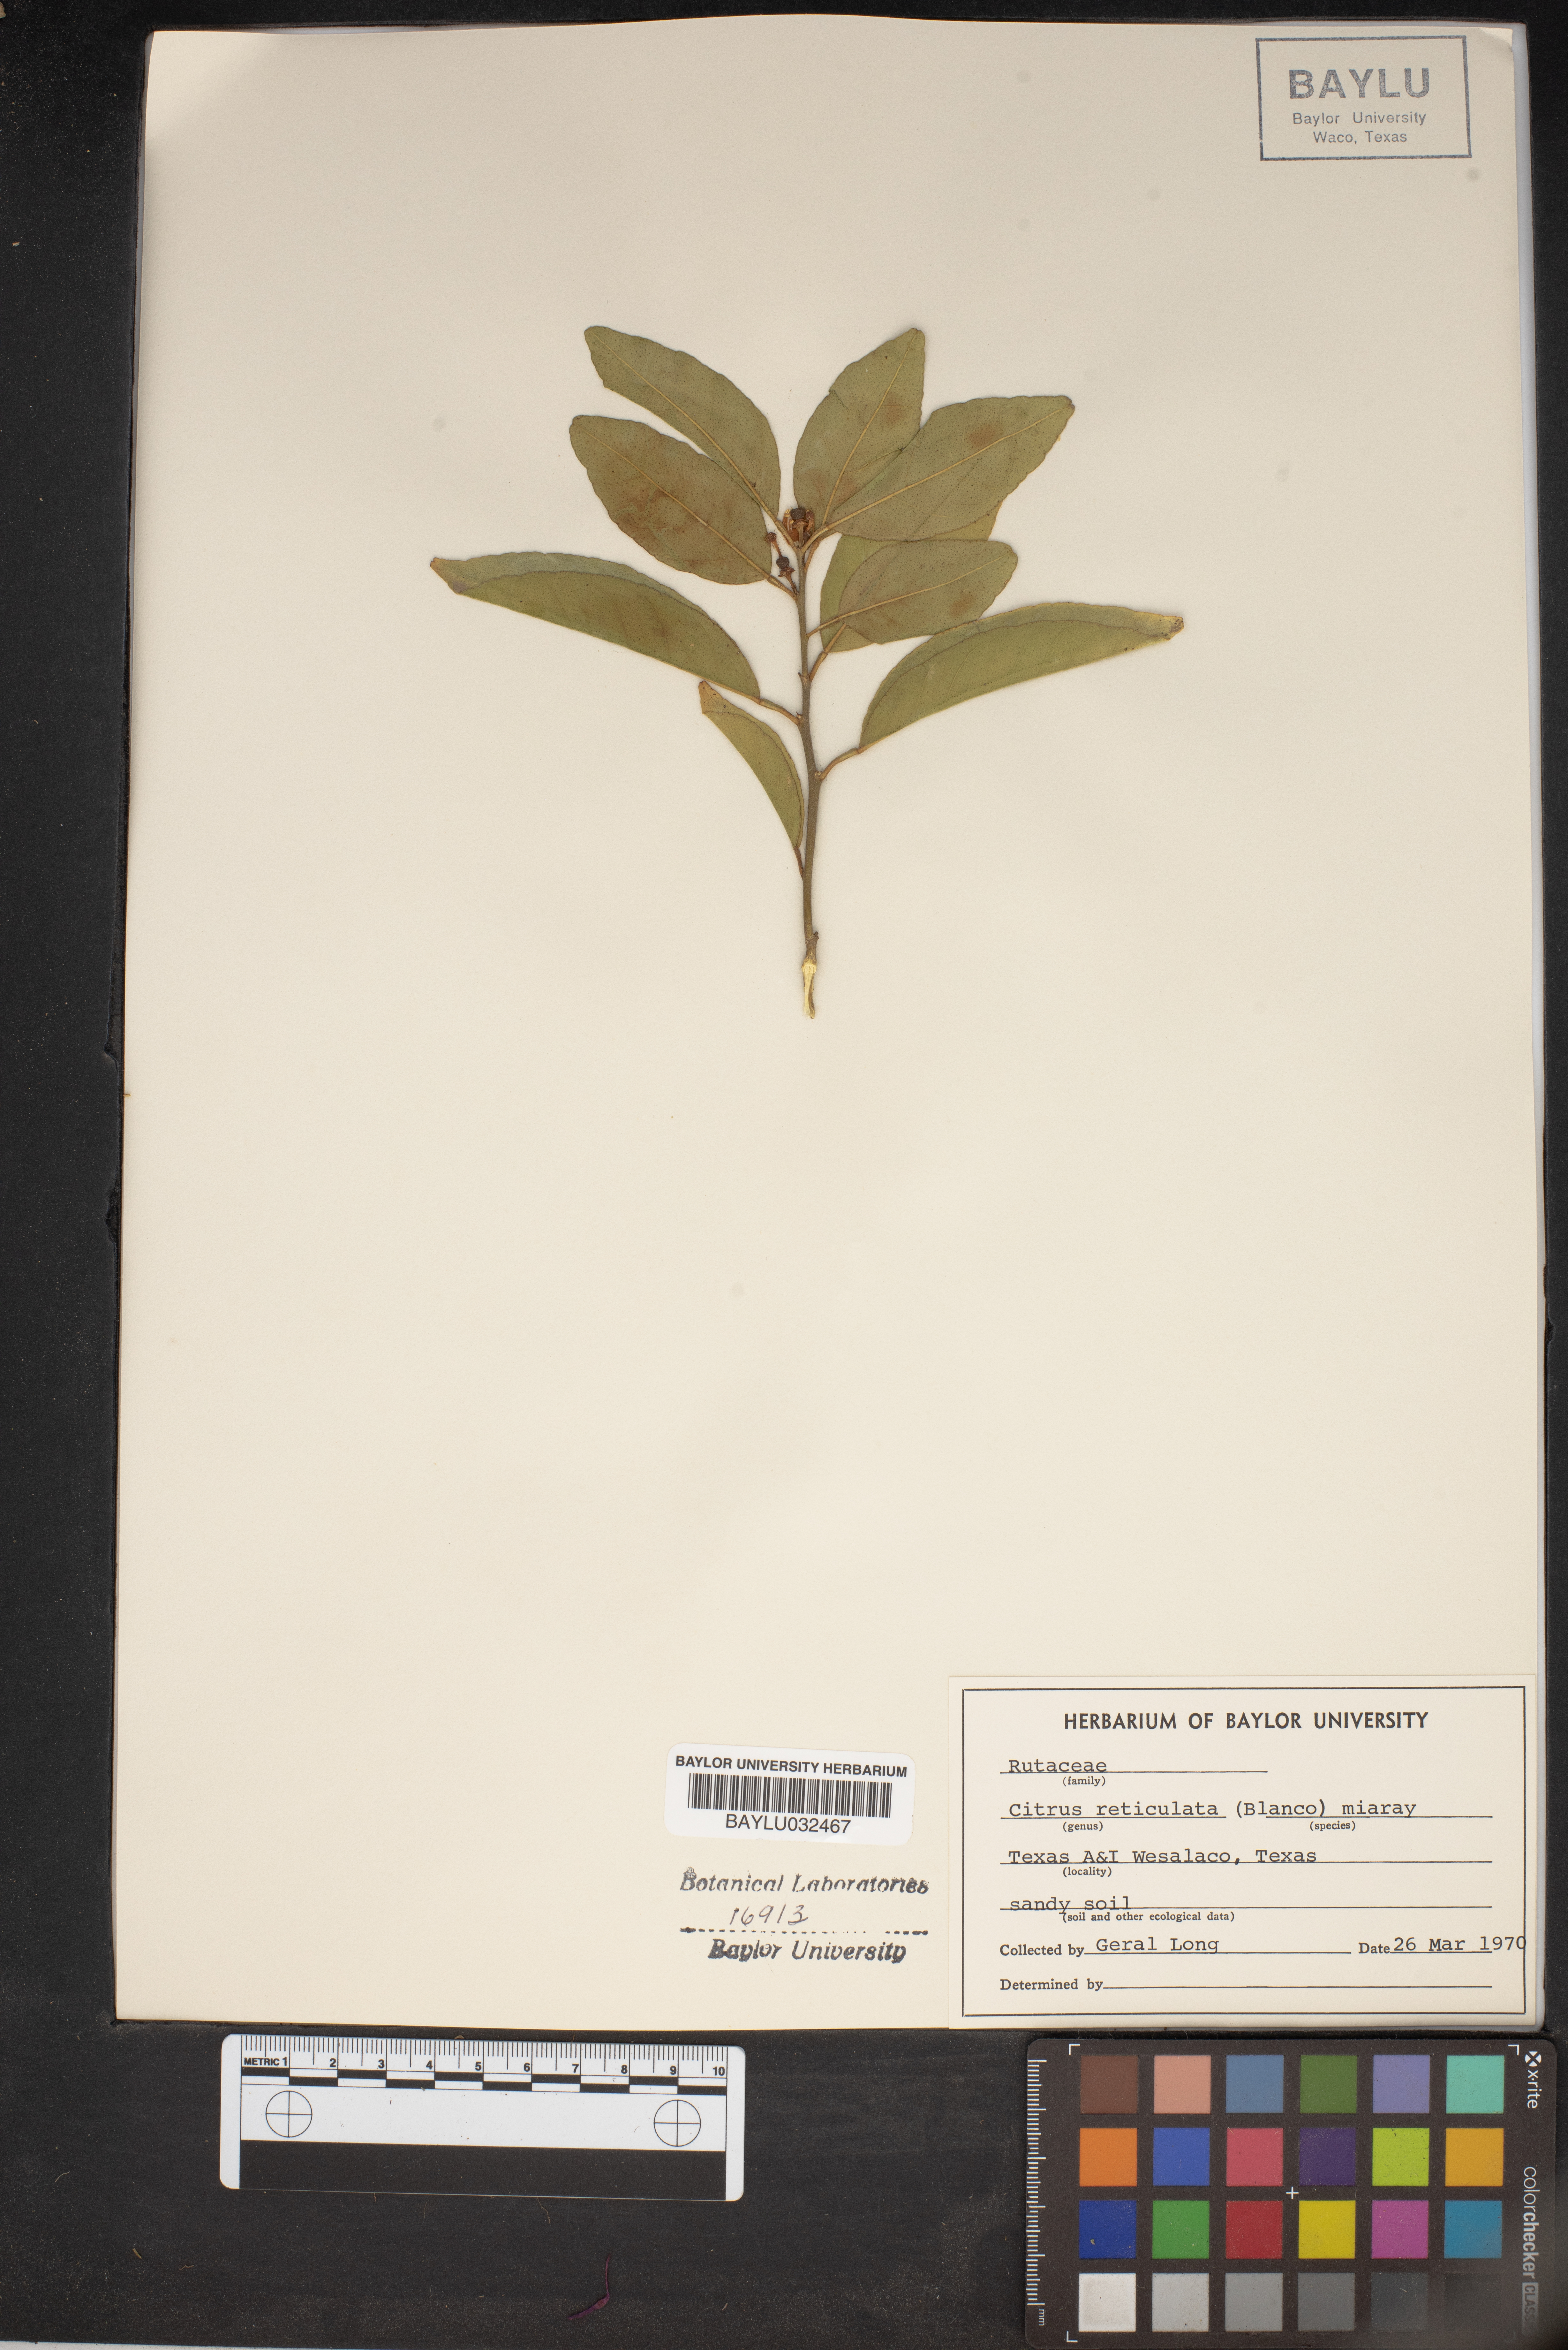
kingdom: Plantae
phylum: Tracheophyta
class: Magnoliopsida
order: Sapindales
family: Rutaceae
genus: Citrus
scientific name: Citrus reticulata
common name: Tangerine
